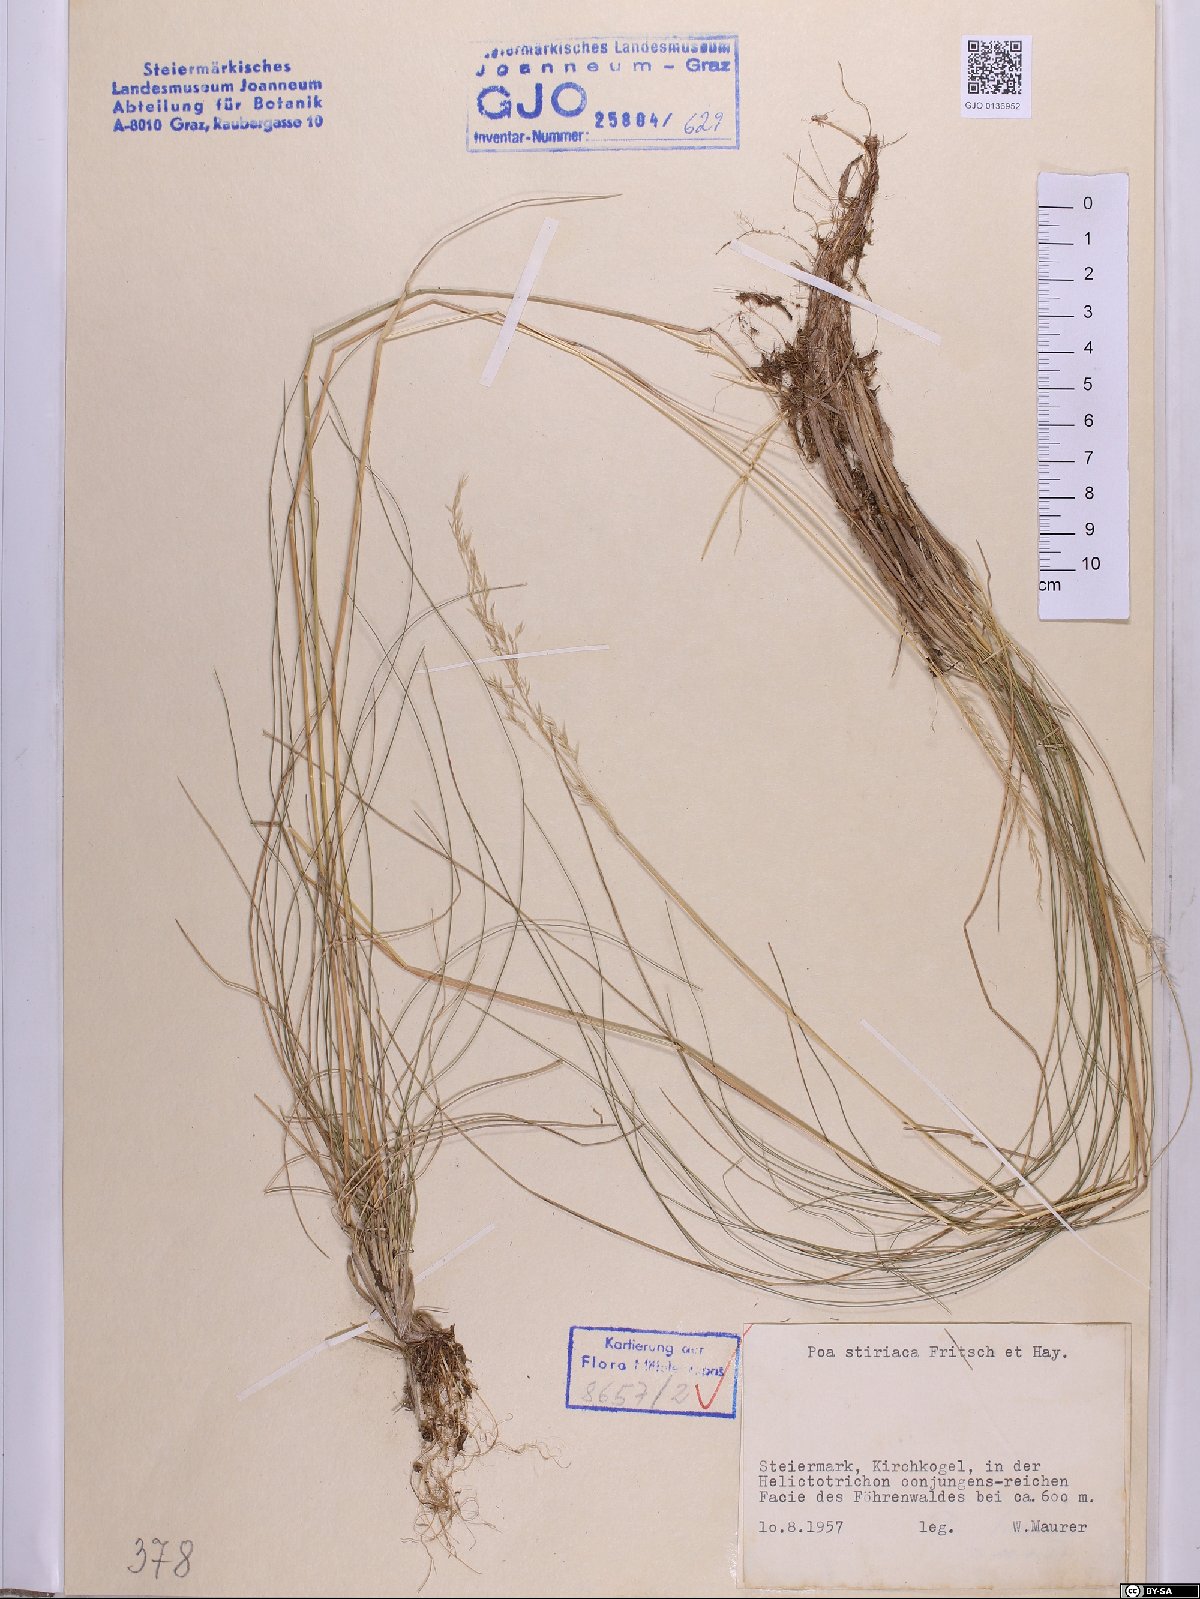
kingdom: Plantae
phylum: Tracheophyta
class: Liliopsida
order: Poales
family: Poaceae
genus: Poa
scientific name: Poa stiriaca
